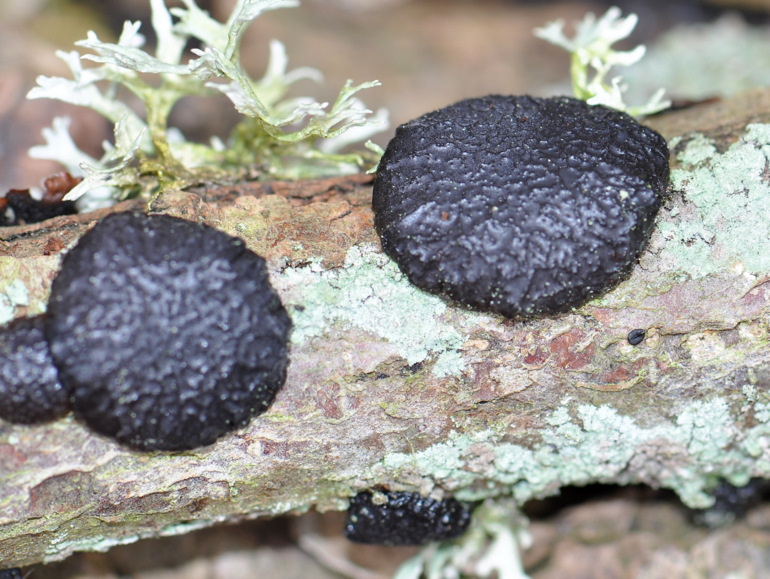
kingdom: Fungi
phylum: Basidiomycota
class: Agaricomycetes
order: Auriculariales
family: Auriculariaceae
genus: Exidia
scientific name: Exidia glandulosa
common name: ege-bævretop
